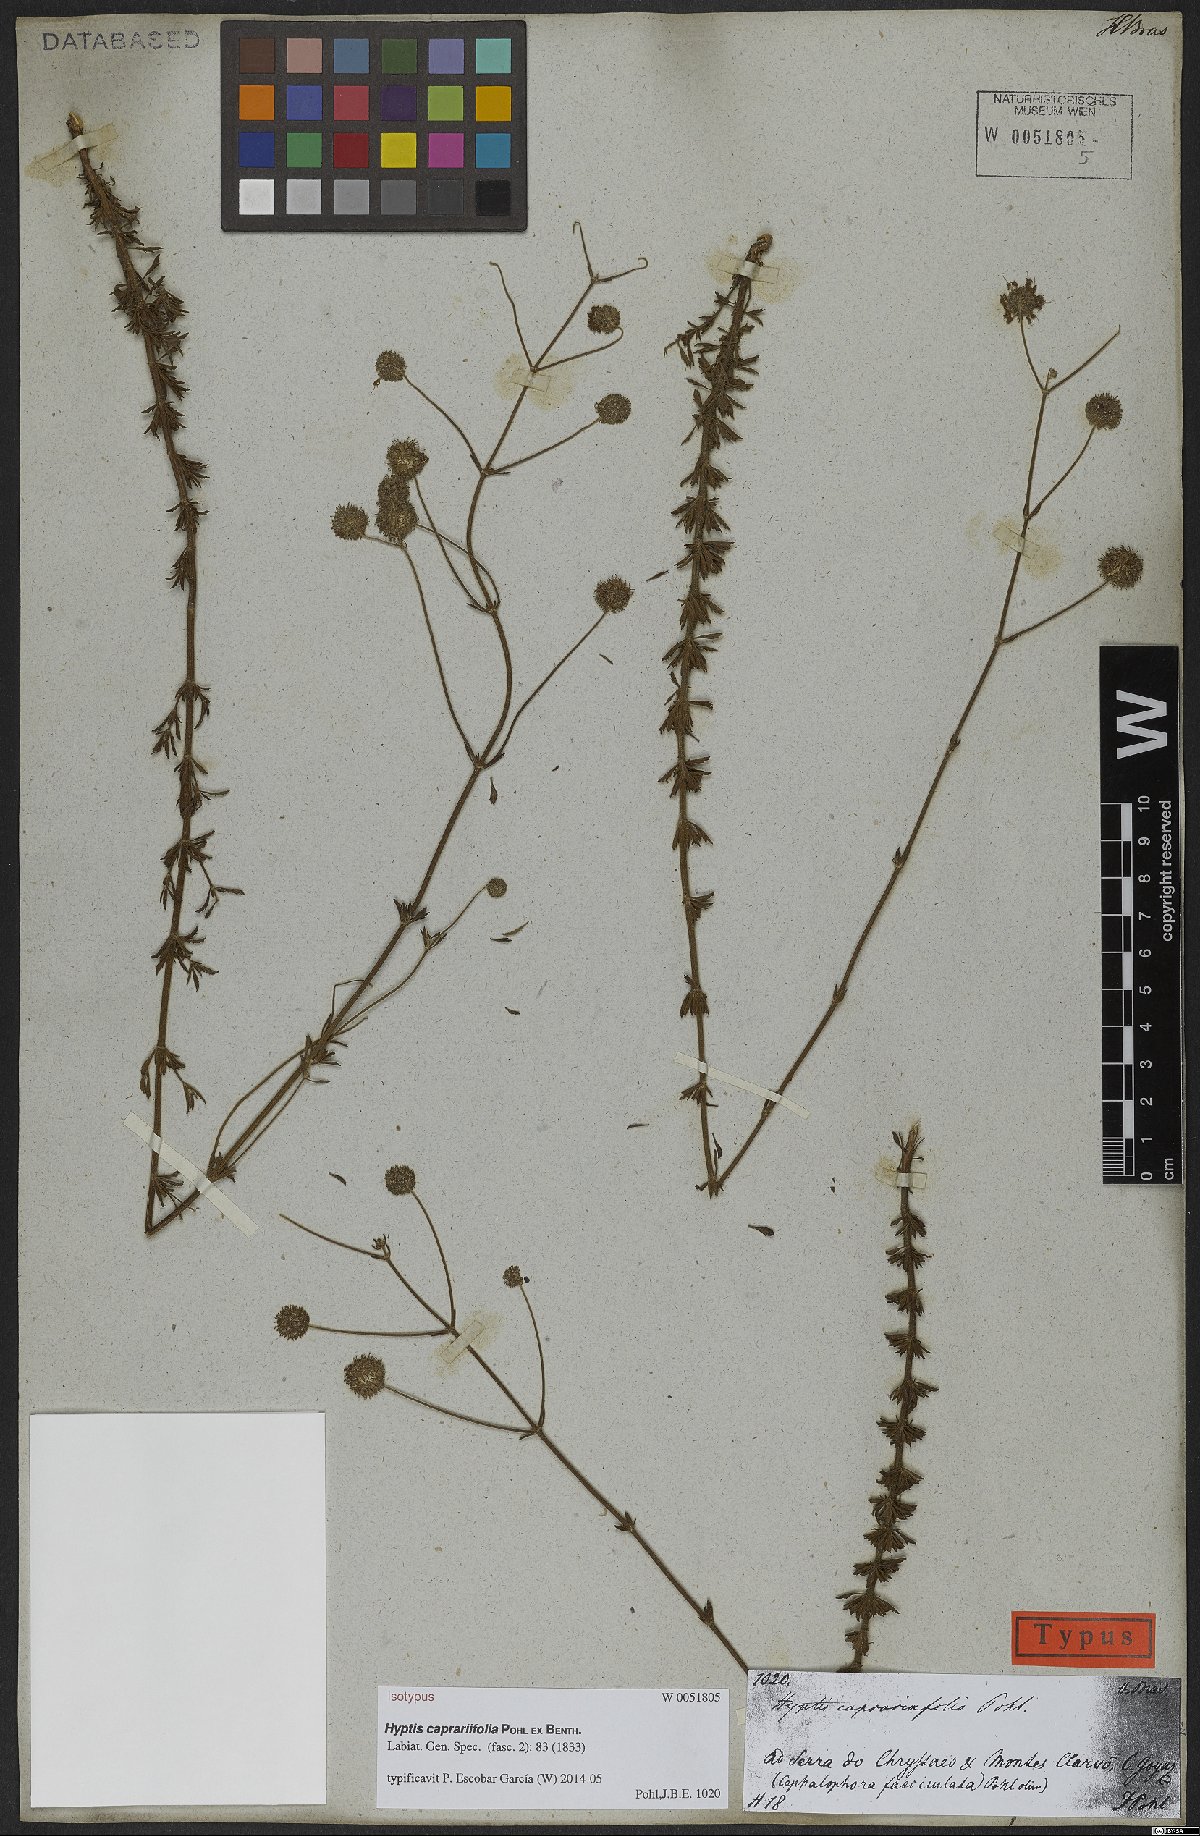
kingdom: Plantae
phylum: Tracheophyta
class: Magnoliopsida
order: Lamiales
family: Lamiaceae
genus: Cyanocephalus
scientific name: Cyanocephalus caprariifolius
